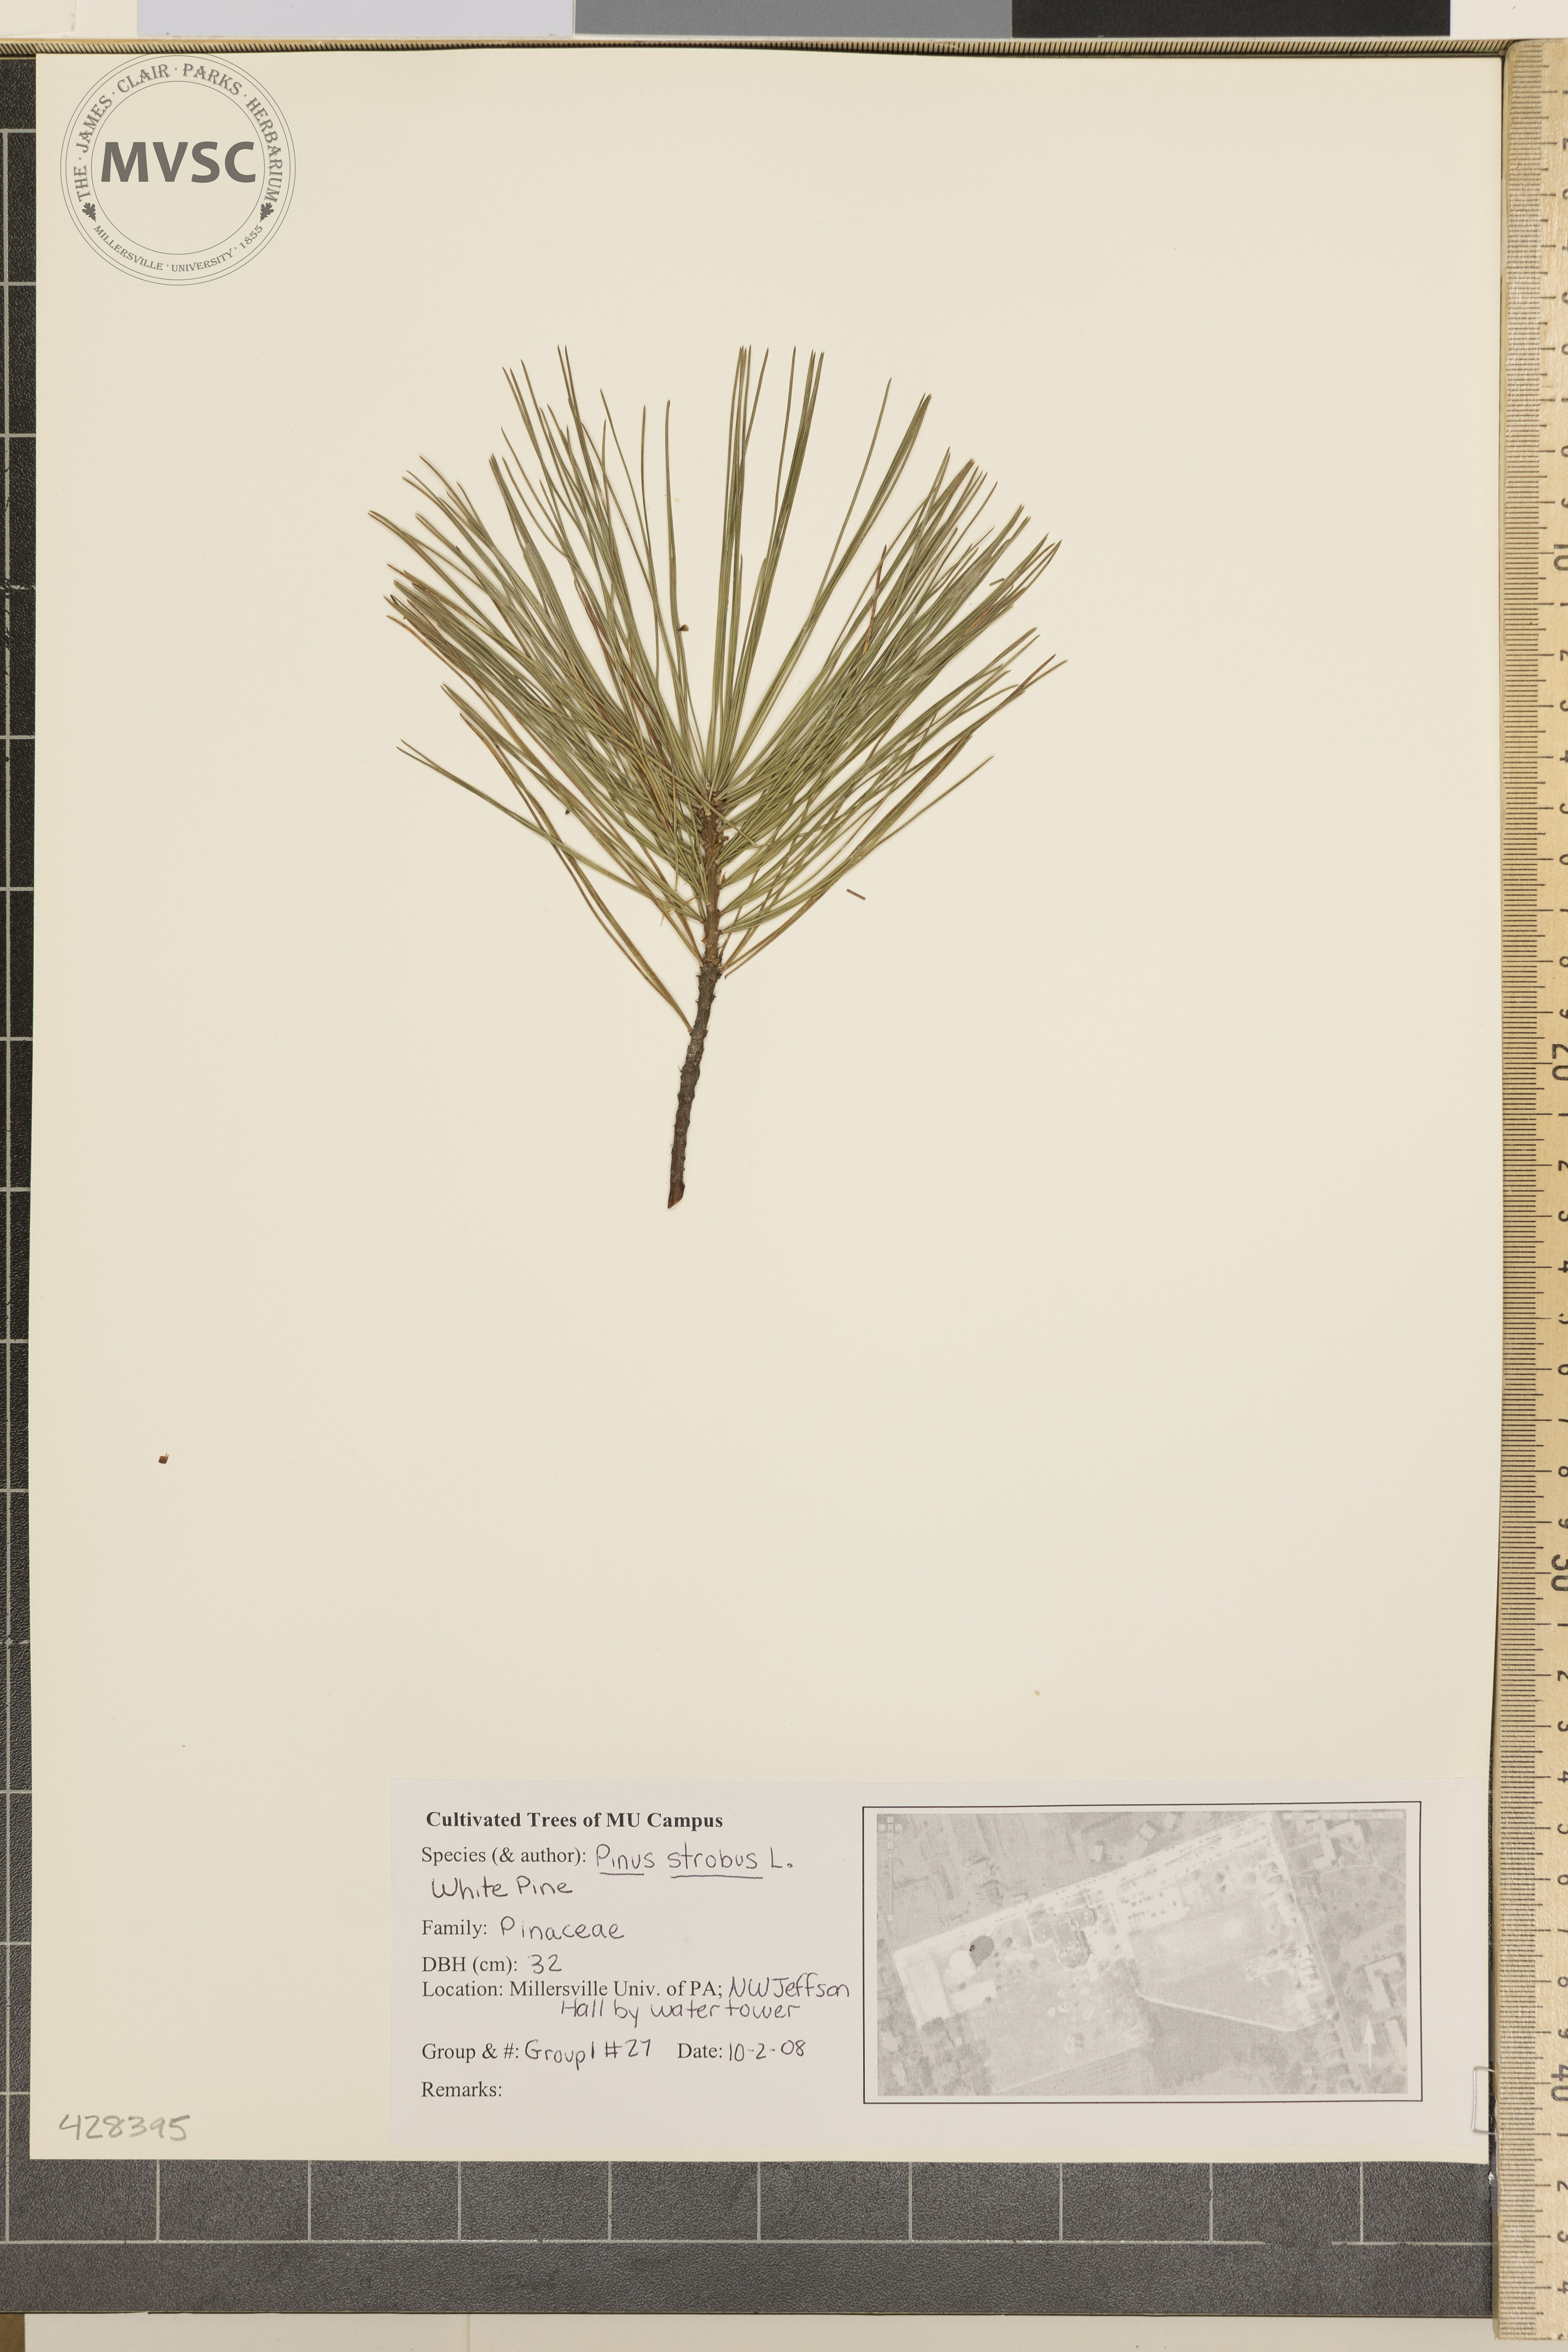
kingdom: Plantae
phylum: Tracheophyta
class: Pinopsida
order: Pinales
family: Pinaceae
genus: Pinus
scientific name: Pinus strobus
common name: Eastern White Pine
